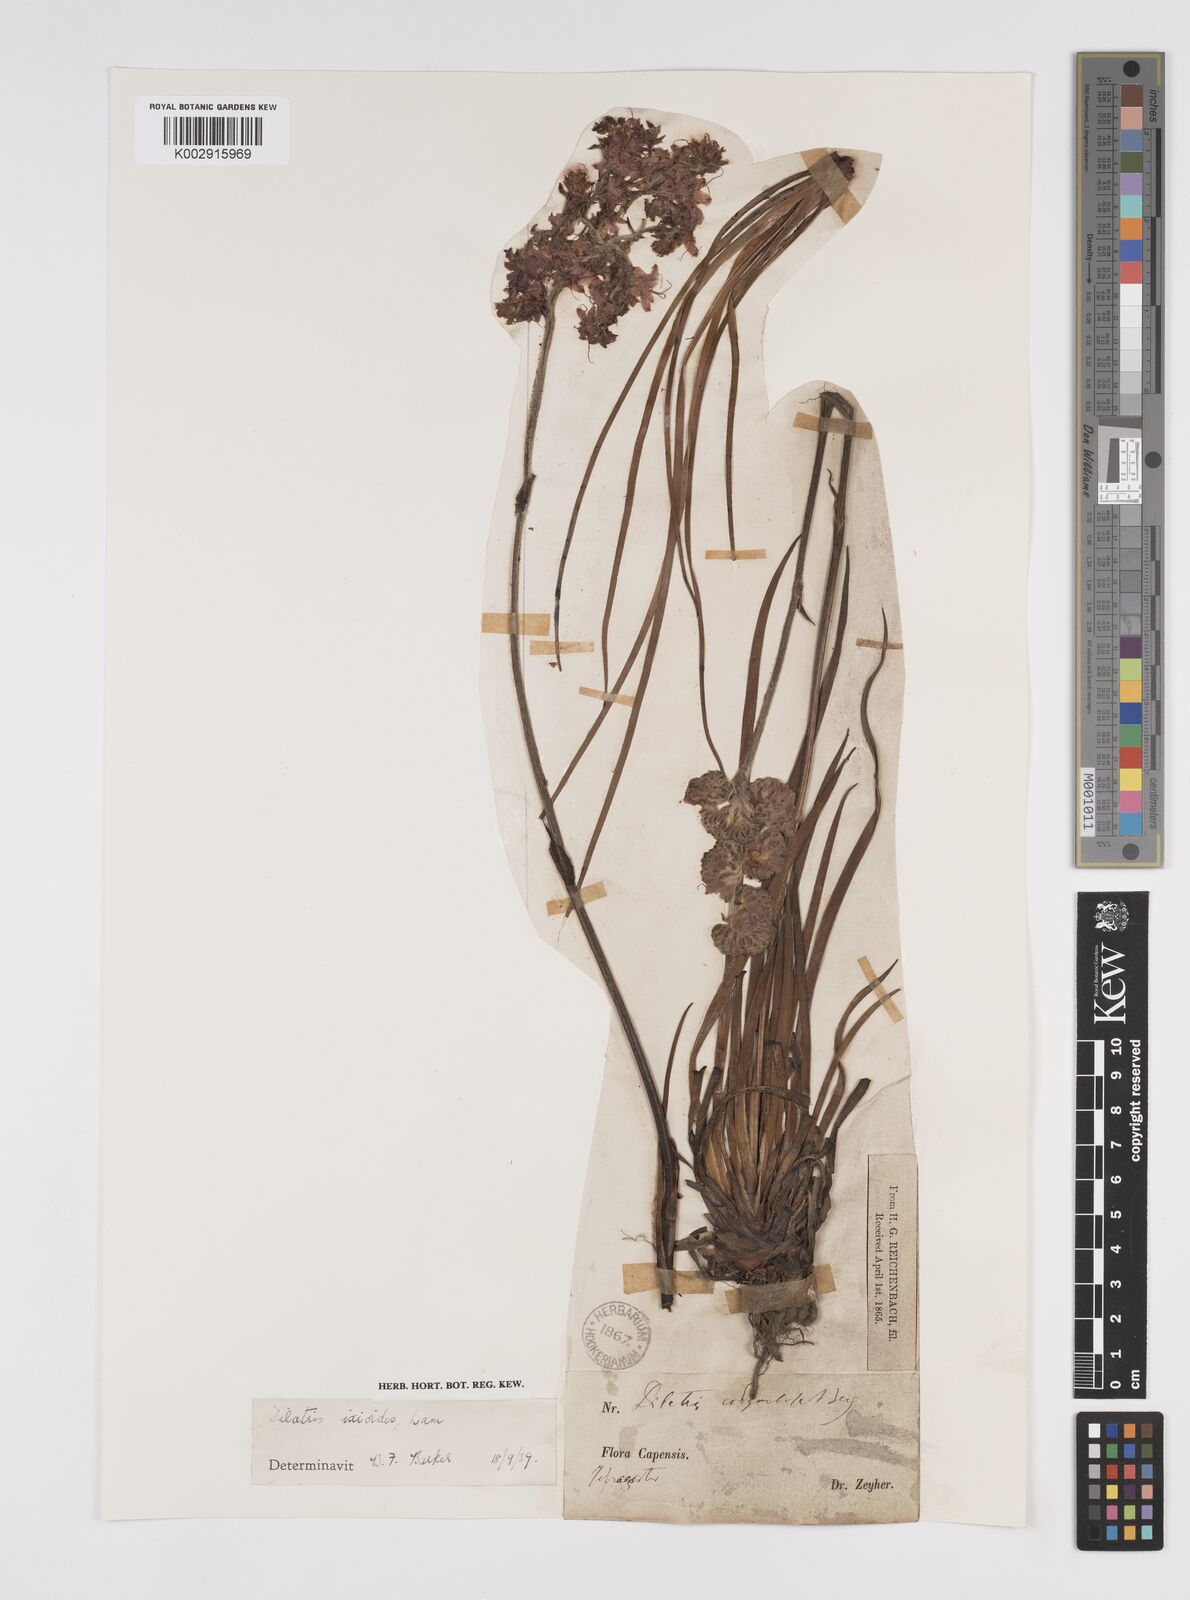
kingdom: Plantae
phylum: Tracheophyta
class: Liliopsida
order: Commelinales
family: Haemodoraceae
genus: Dilatris
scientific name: Dilatris ixioides
